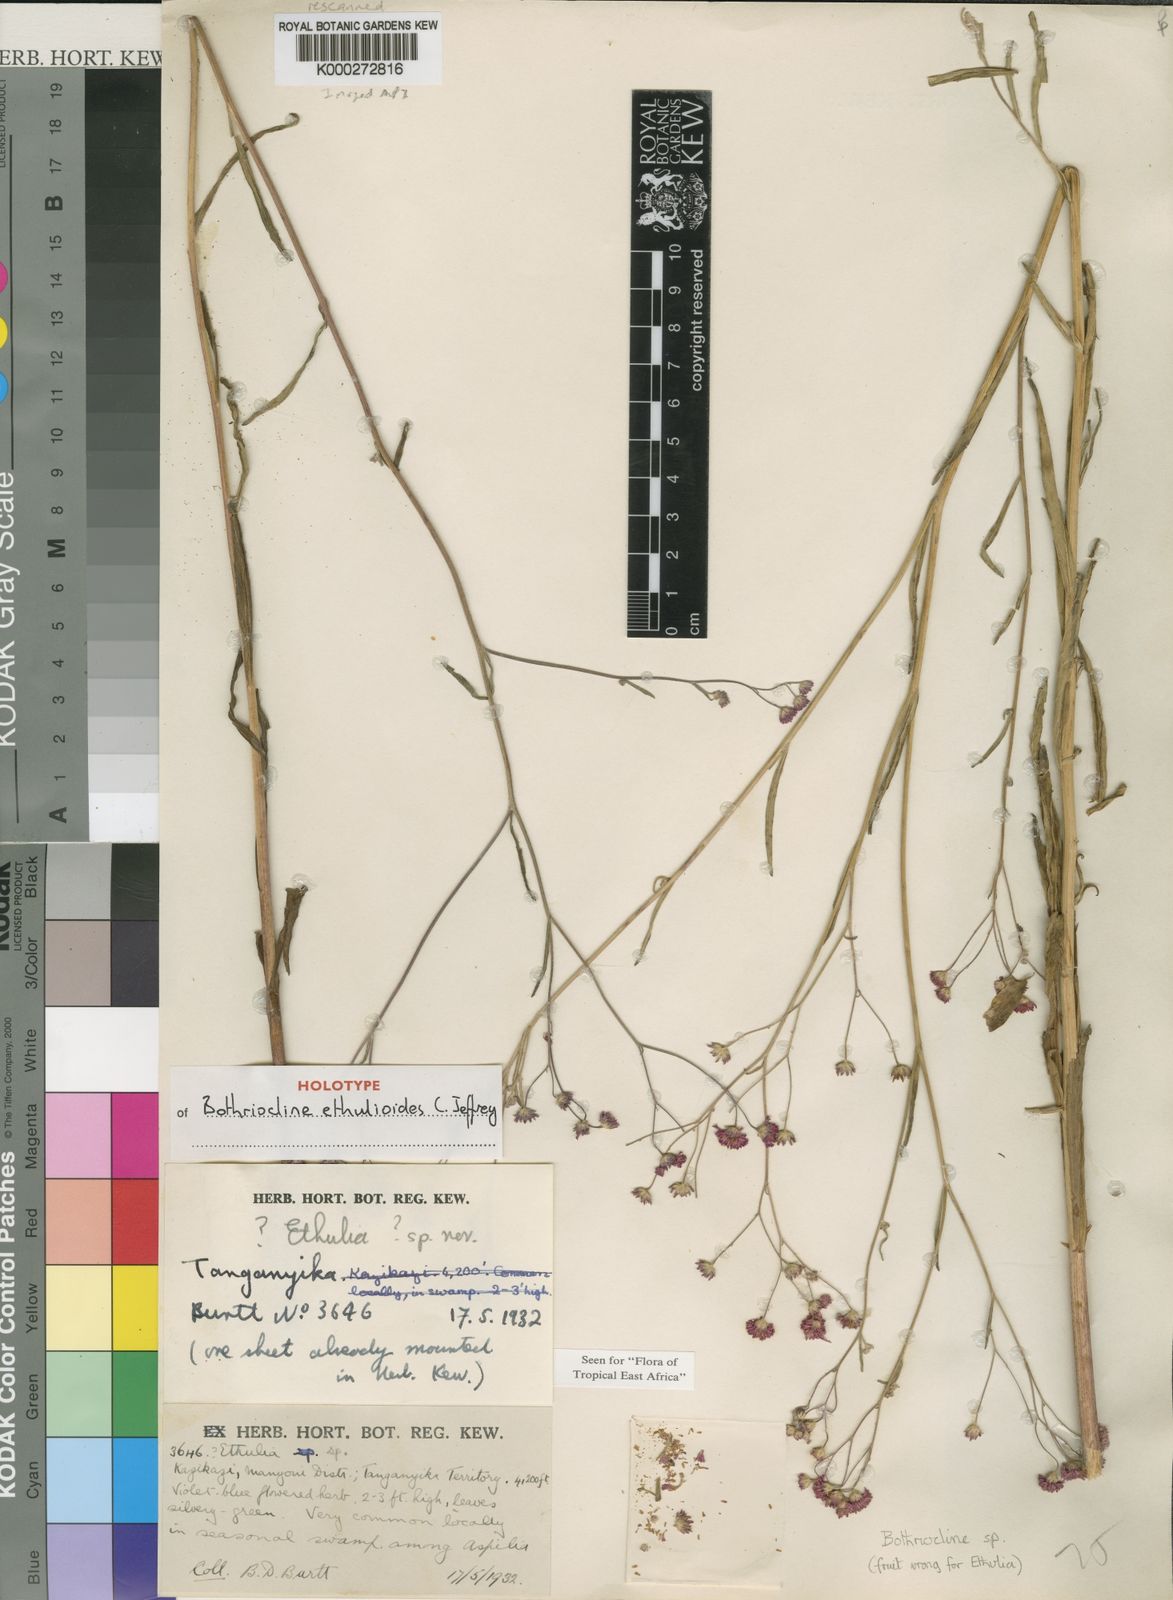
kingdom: Plantae
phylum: Tracheophyta
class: Magnoliopsida
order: Asterales
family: Asteraceae
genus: Bothriocline
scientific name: Bothriocline ethulioides
